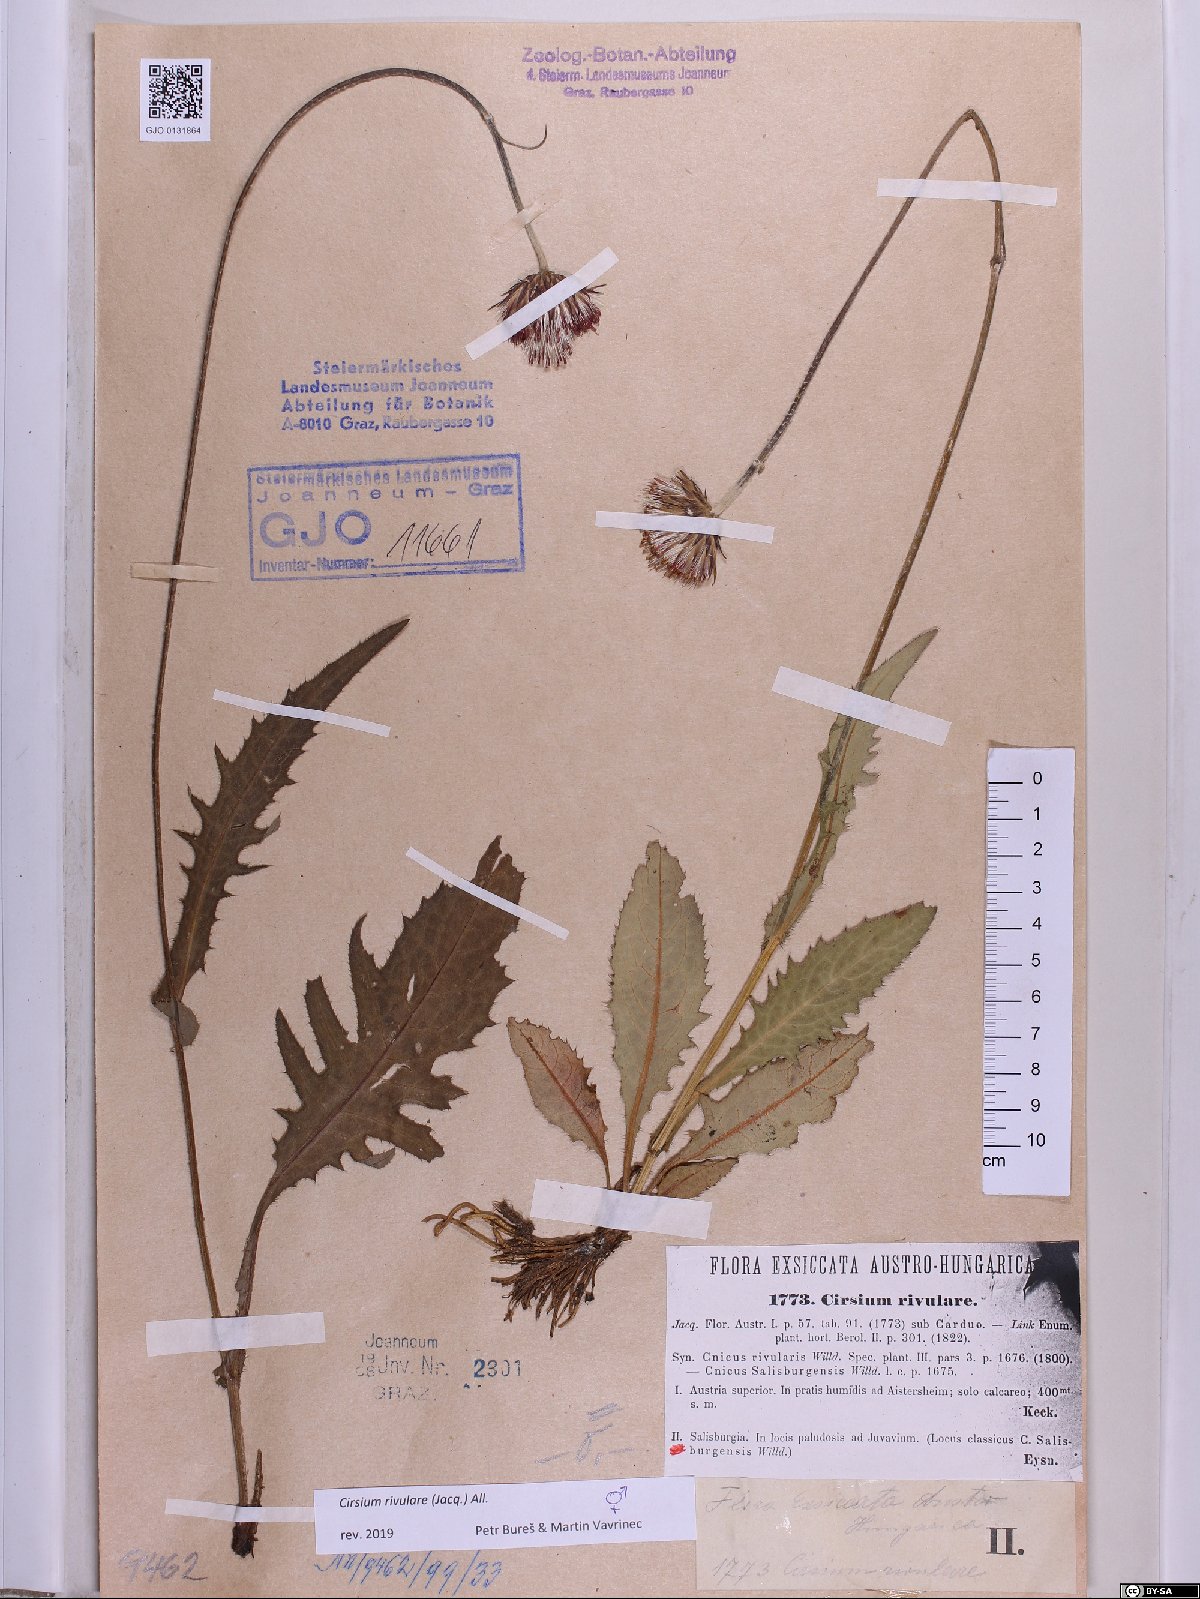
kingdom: Plantae
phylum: Tracheophyta
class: Magnoliopsida
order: Asterales
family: Asteraceae
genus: Cirsium
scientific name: Cirsium rivulare
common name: Brook thistle
